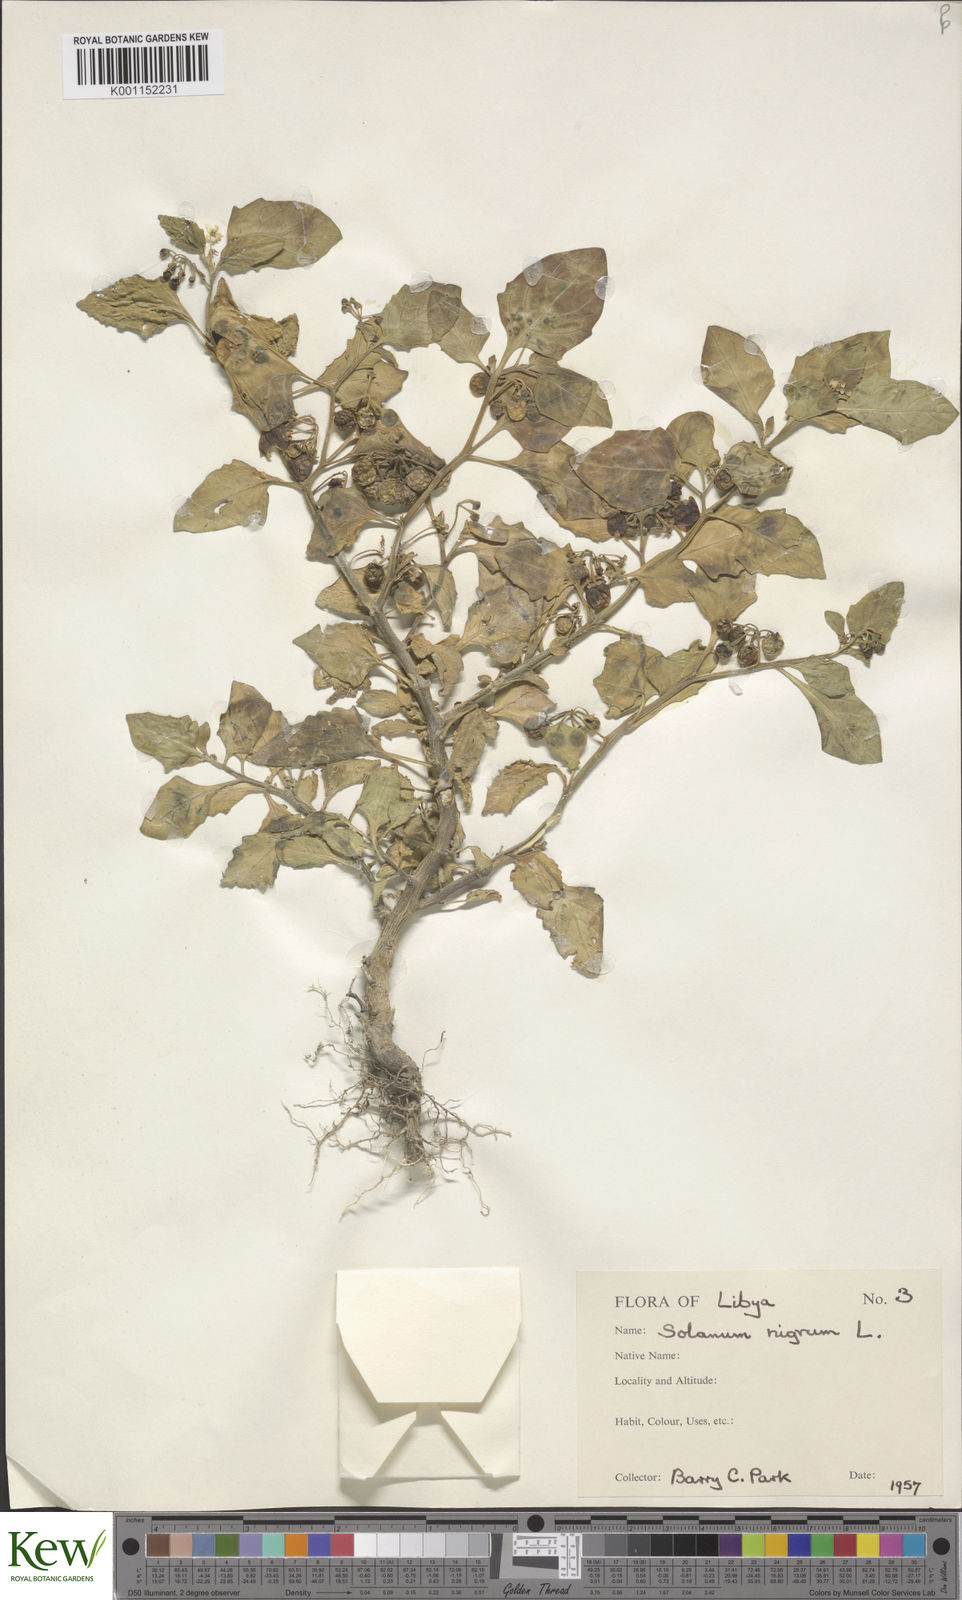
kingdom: Plantae
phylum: Tracheophyta
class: Magnoliopsida
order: Solanales
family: Solanaceae
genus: Solanum
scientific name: Solanum nigrum
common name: Black nightshade
